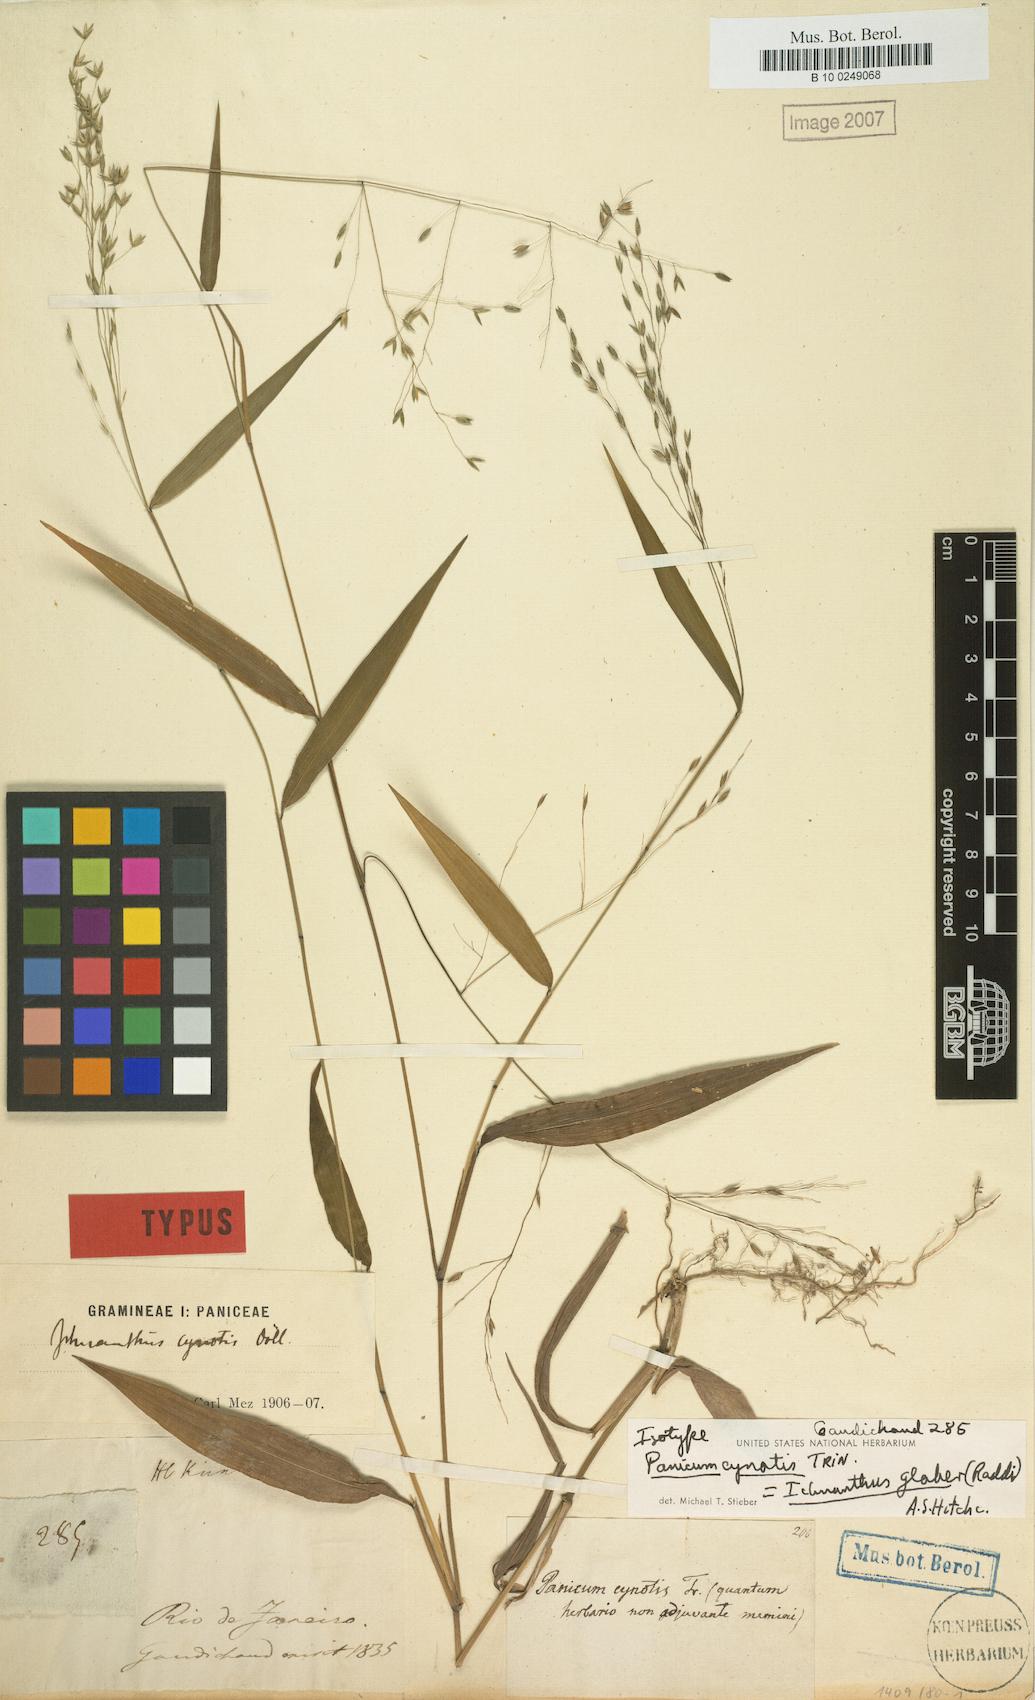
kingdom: Plantae
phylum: Tracheophyta
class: Liliopsida
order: Poales
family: Poaceae
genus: Ichnanthus
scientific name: Ichnanthus glaber
